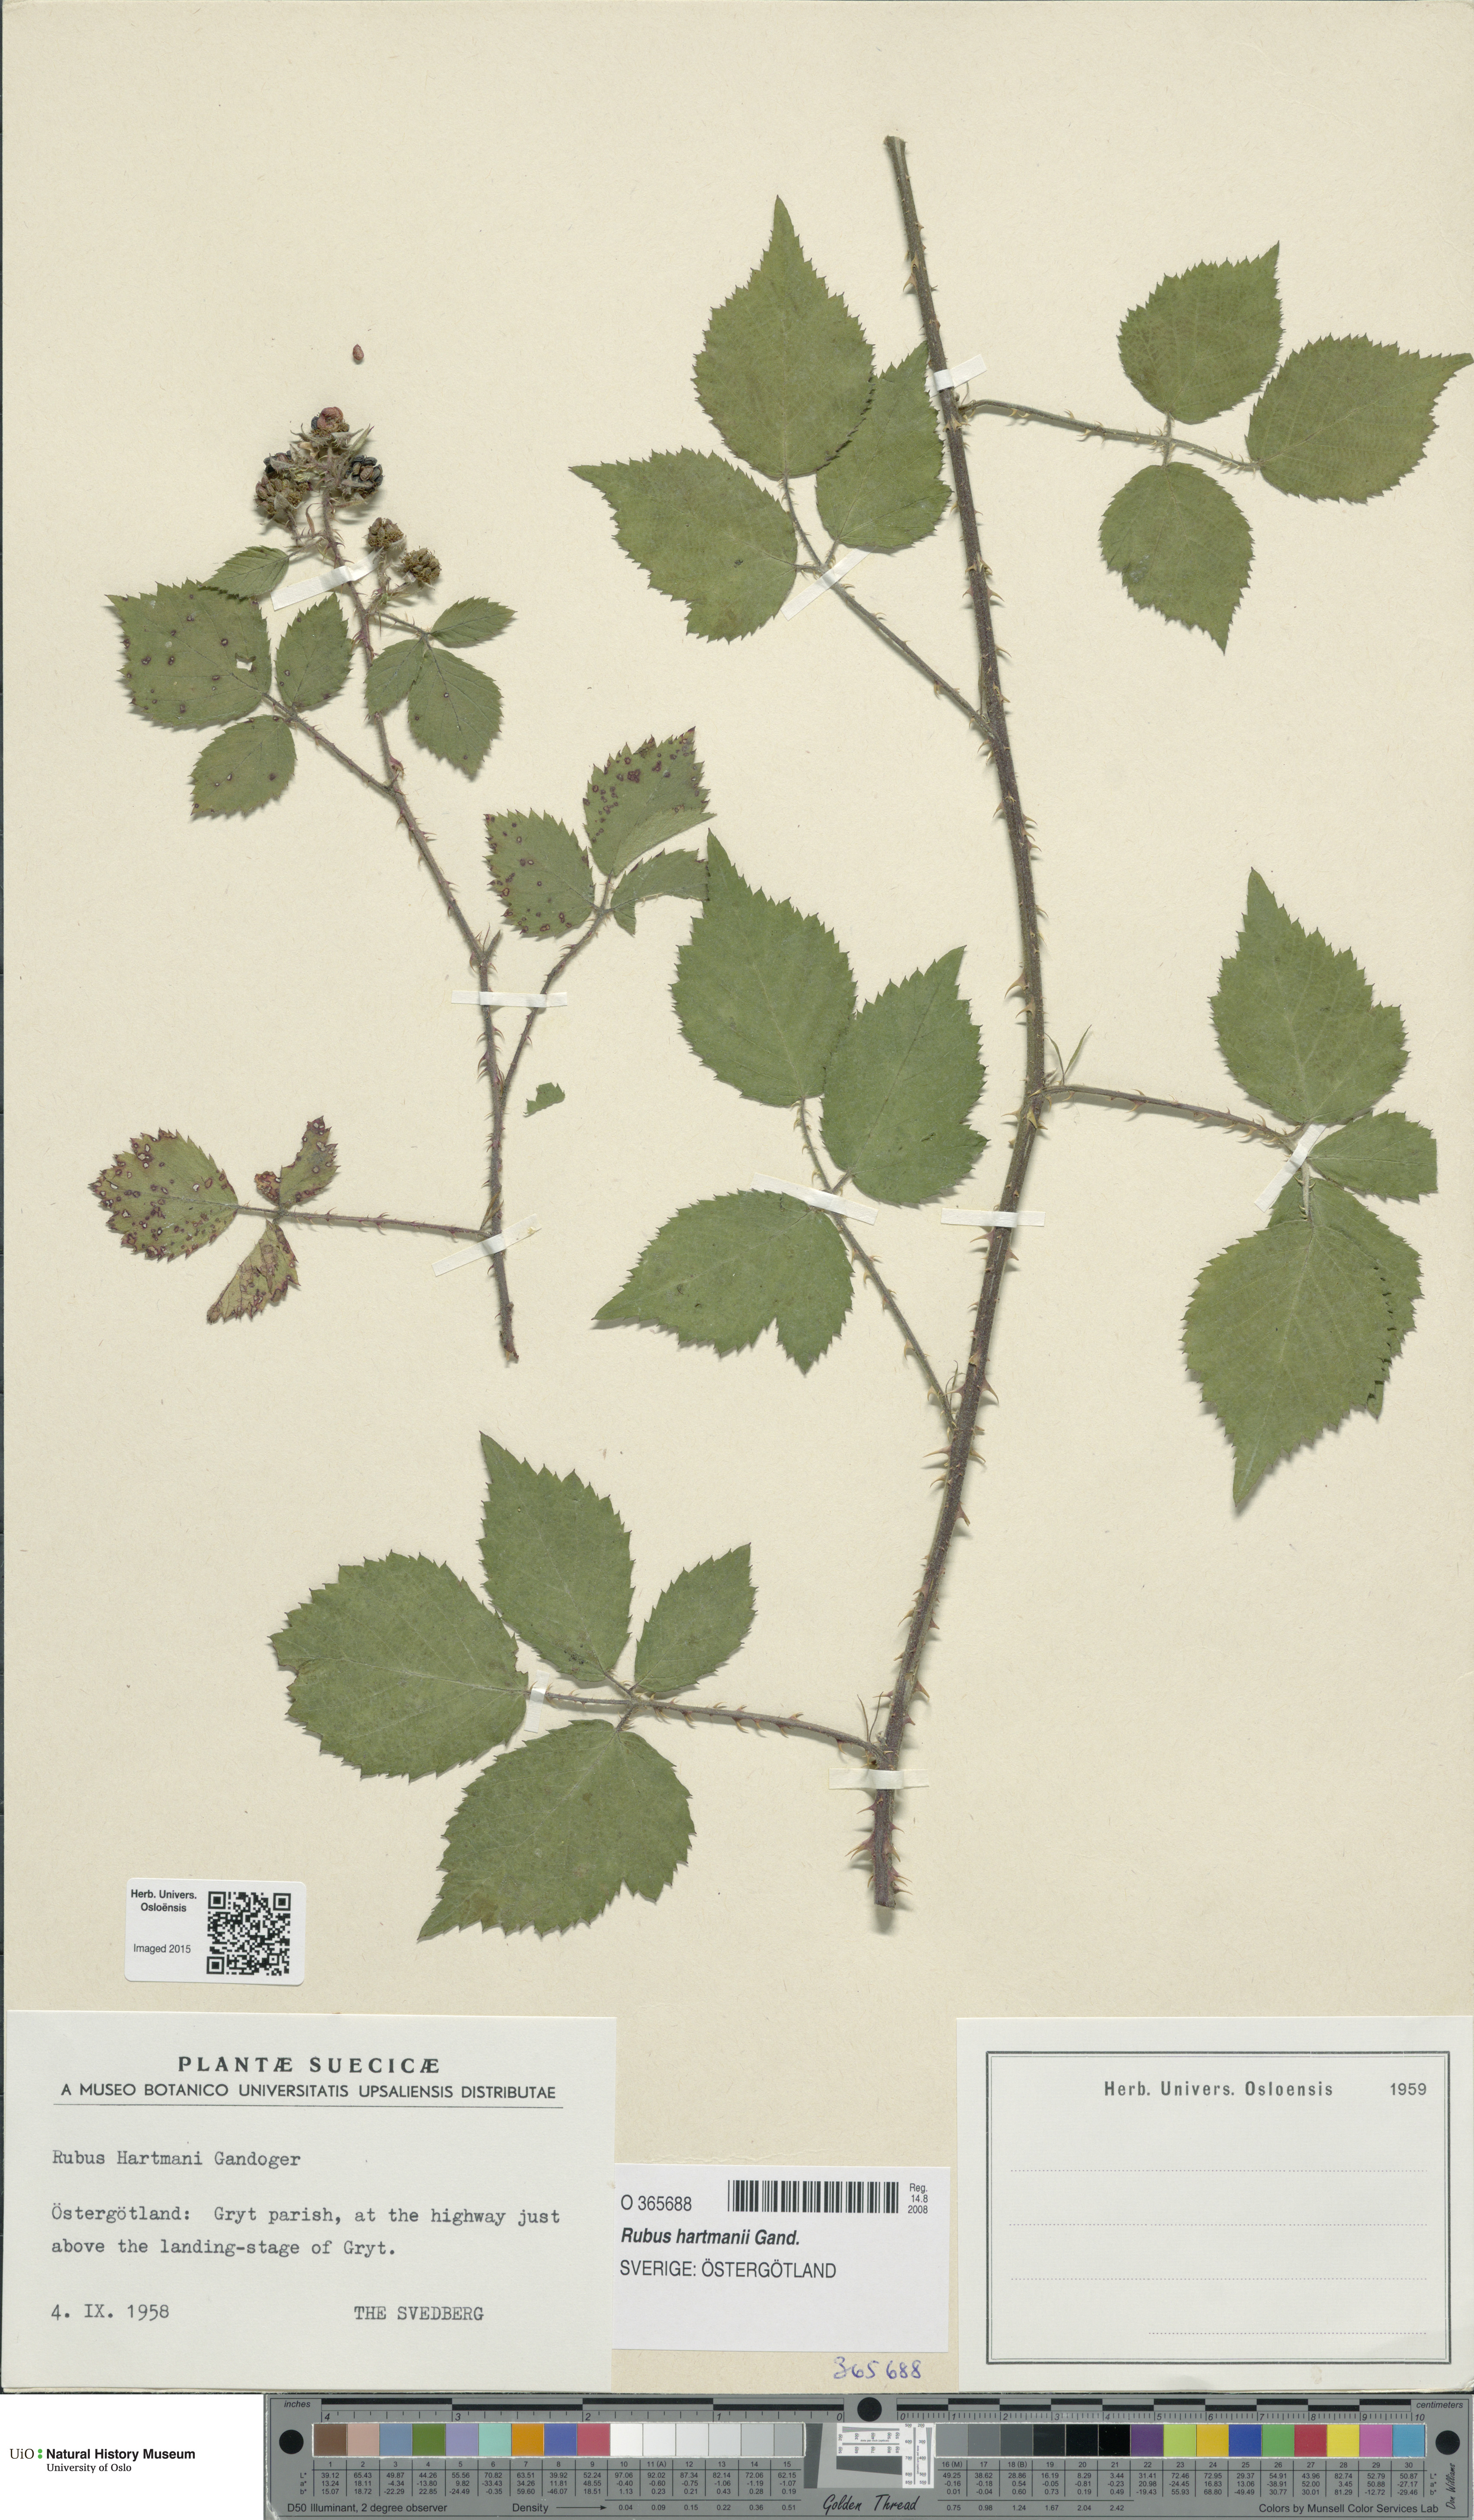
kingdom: Plantae
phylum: Tracheophyta
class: Magnoliopsida
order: Rosales
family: Rosaceae
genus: Rubus
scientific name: Rubus hartmanii
